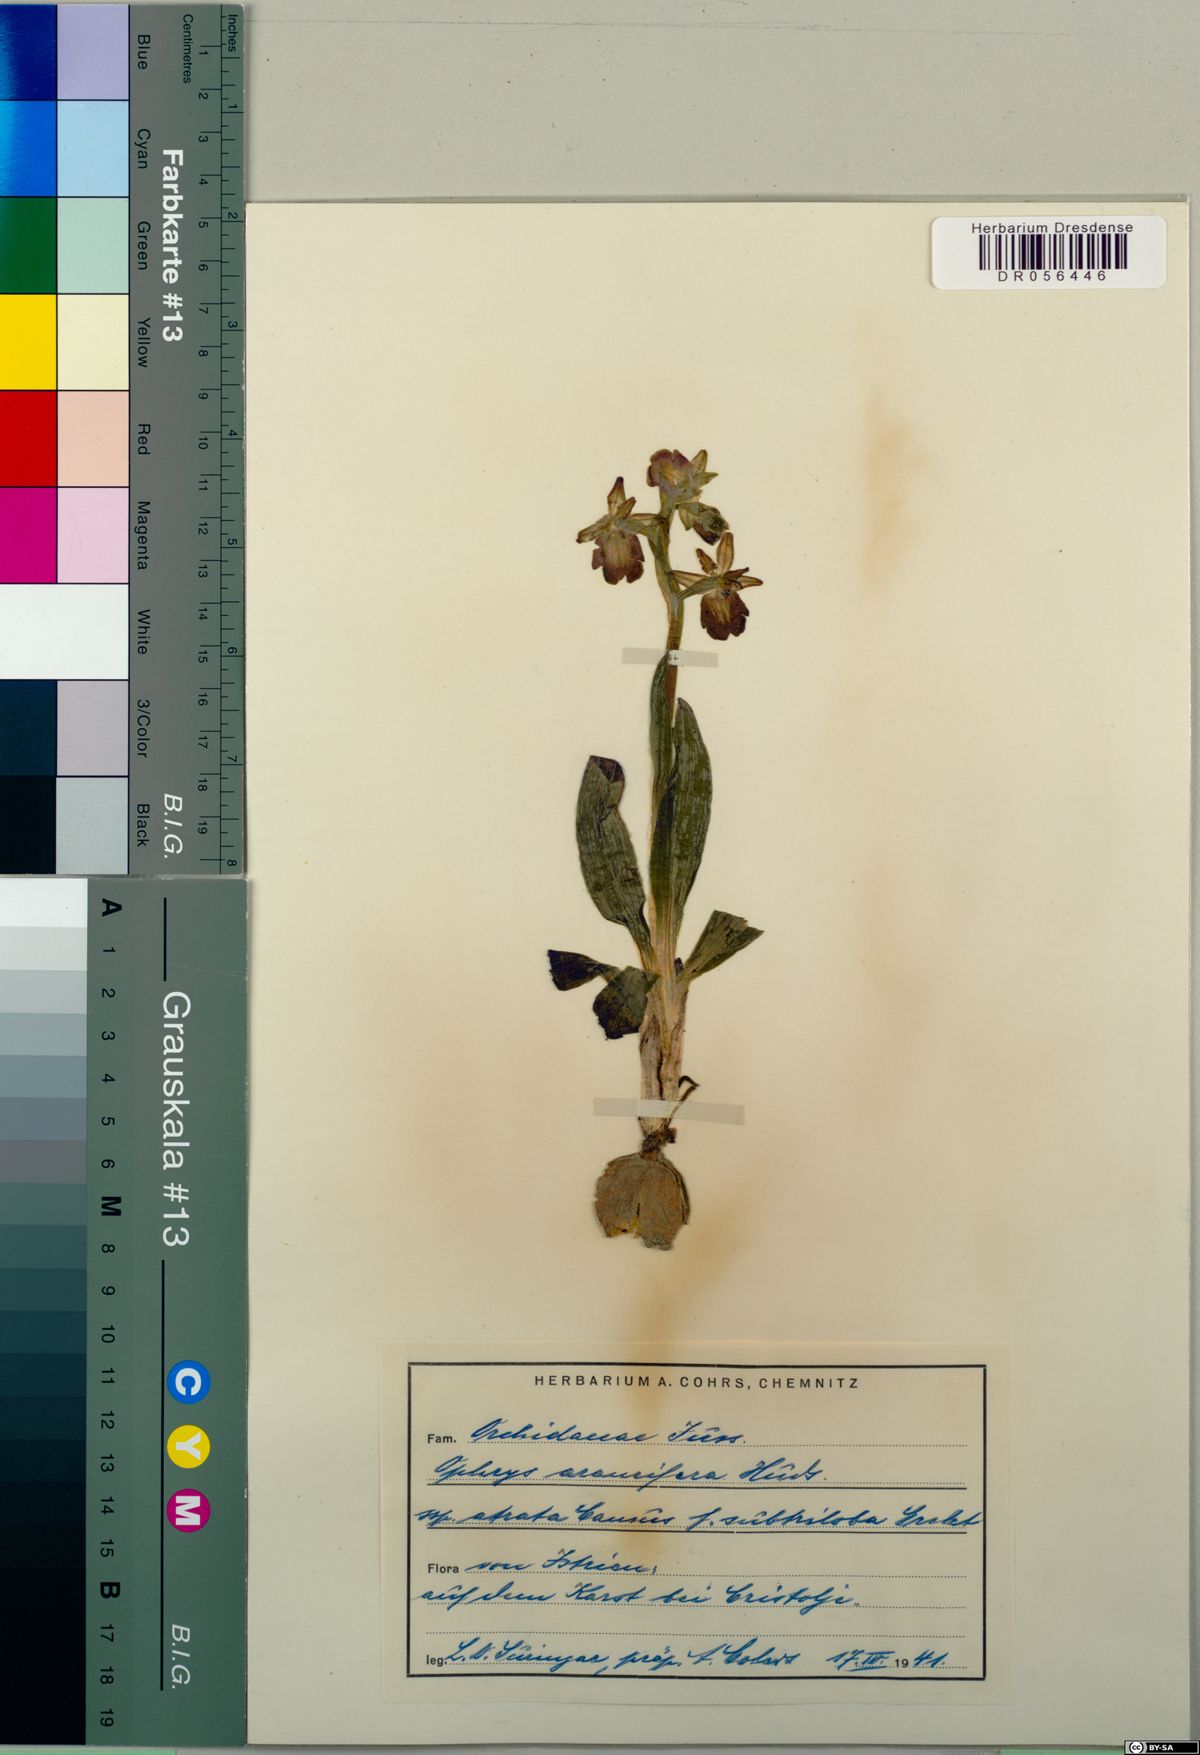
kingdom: Plantae
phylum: Tracheophyta
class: Liliopsida
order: Asparagales
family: Orchidaceae
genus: Ophrys
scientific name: Ophrys sphegodes
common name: Early spider-orchid
